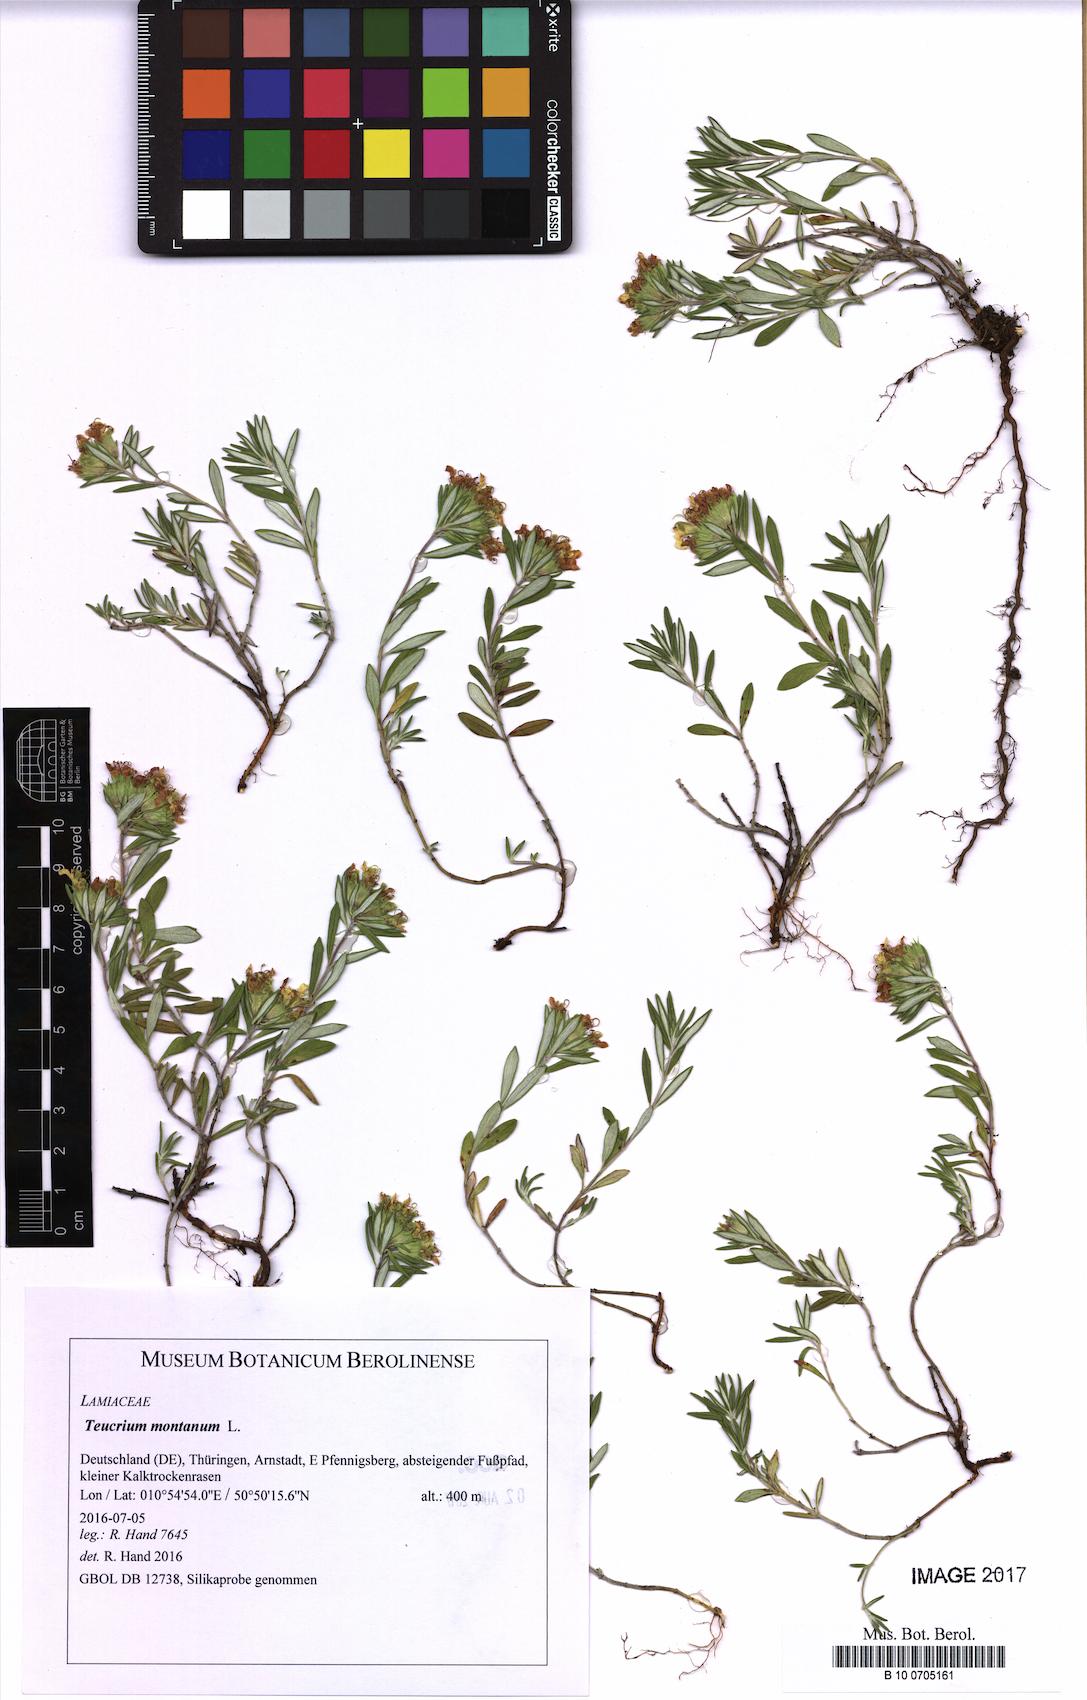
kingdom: Plantae
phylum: Tracheophyta
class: Magnoliopsida
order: Lamiales
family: Lamiaceae
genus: Teucrium
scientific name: Teucrium montanum
